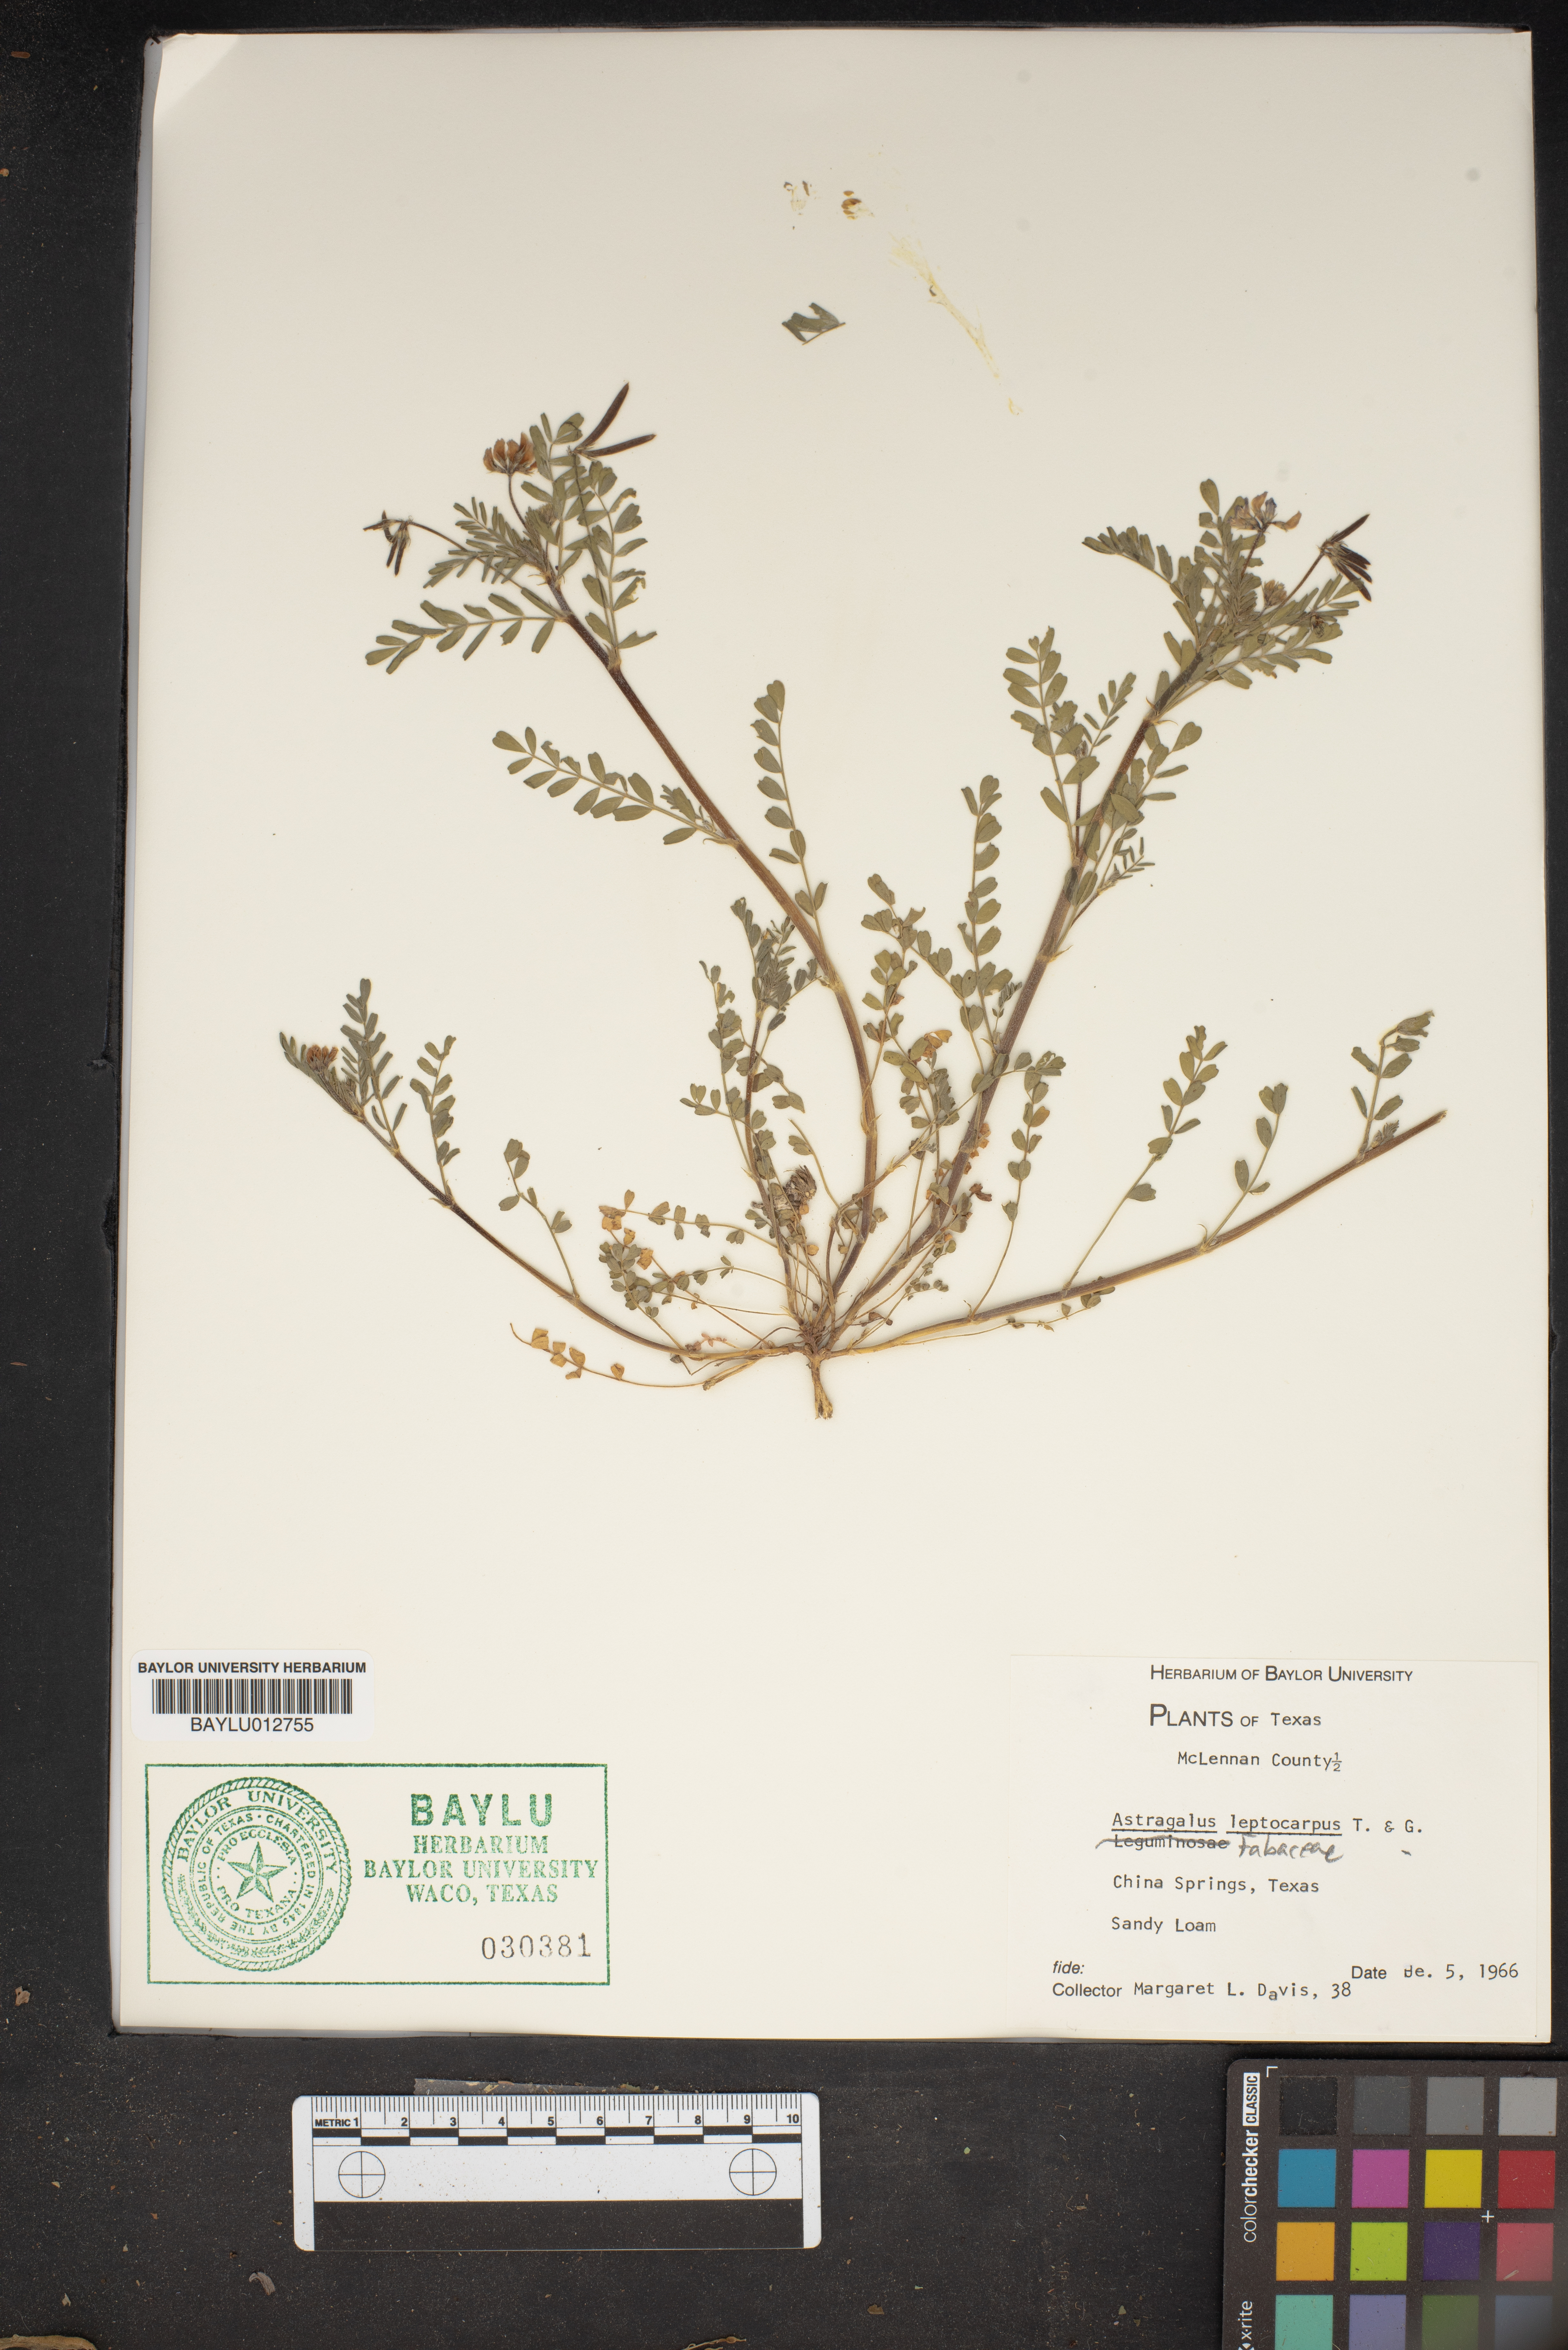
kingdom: Plantae
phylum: Tracheophyta
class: Magnoliopsida
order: Fabales
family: Fabaceae
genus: Astragalus
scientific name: Astragalus leptocarpus
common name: Bodkin milk-vetch
